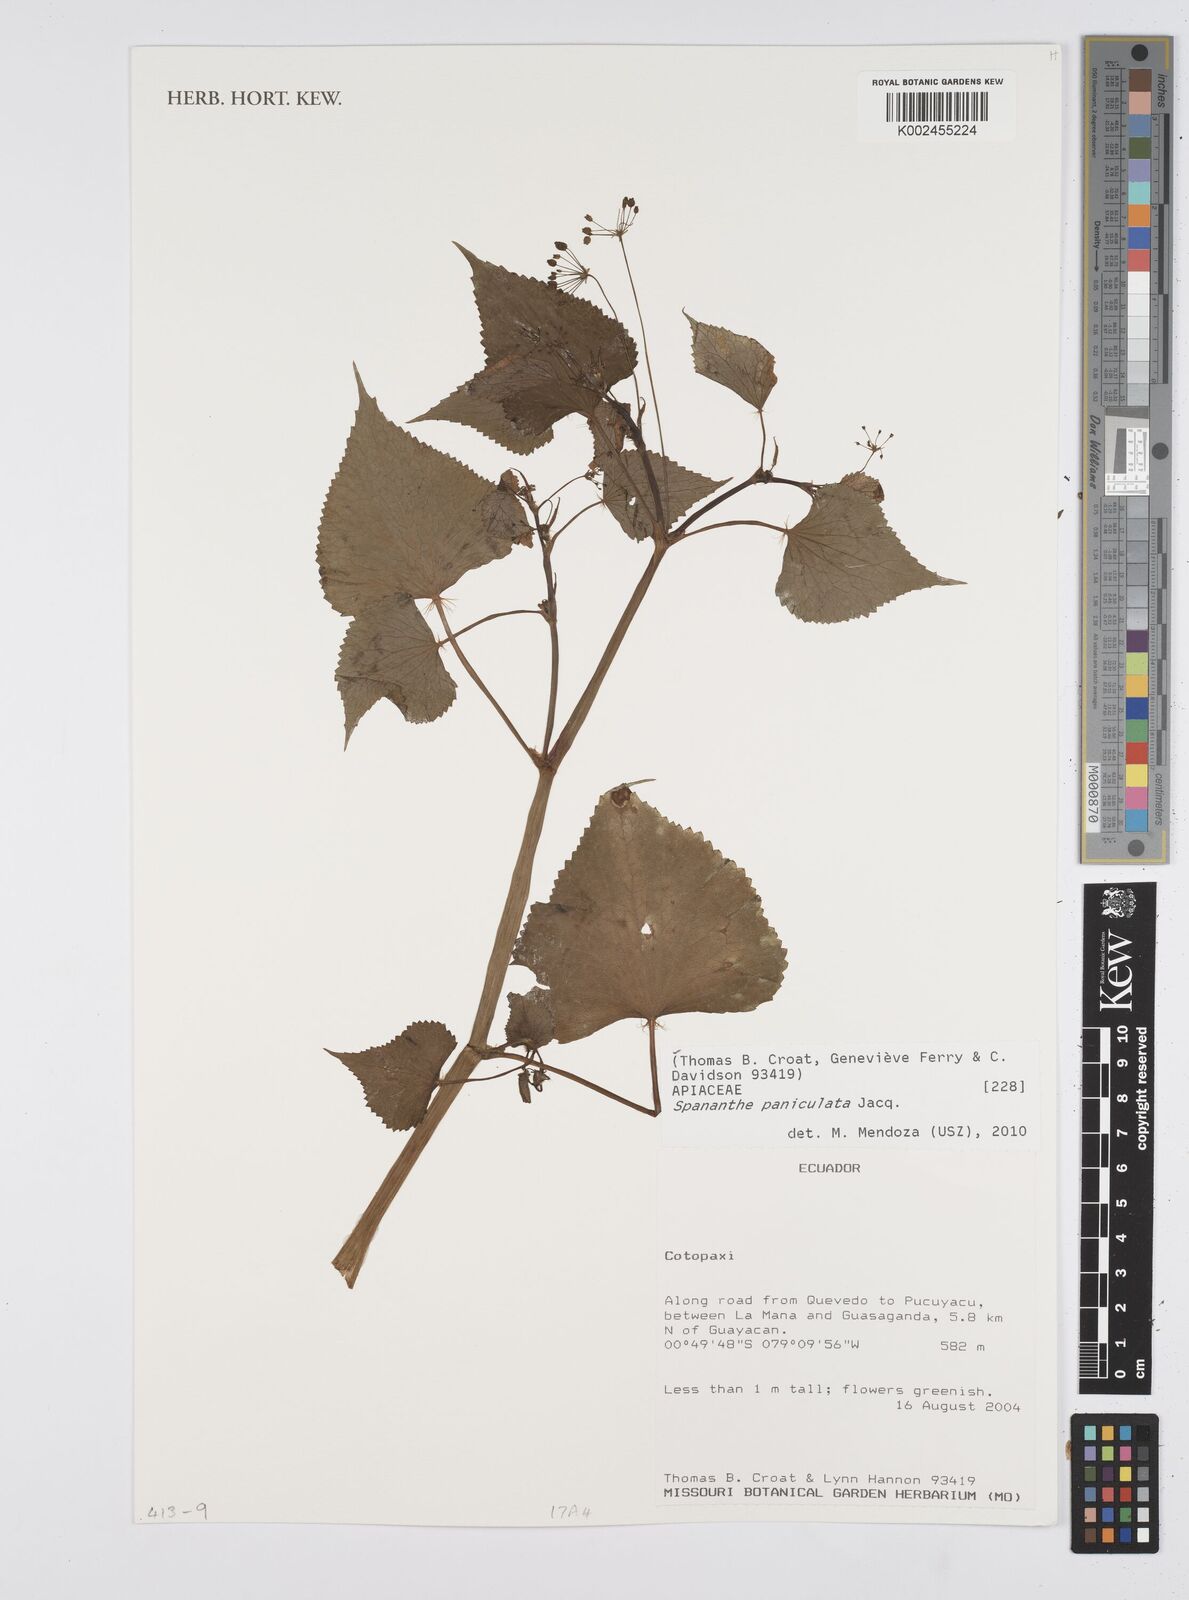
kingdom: Plantae
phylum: Tracheophyta
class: Magnoliopsida
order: Apiales
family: Apiaceae
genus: Azorella
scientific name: Azorella
